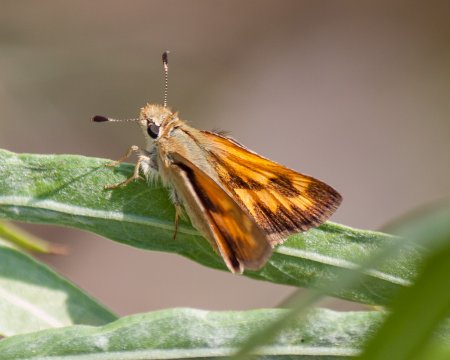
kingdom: Animalia
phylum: Arthropoda
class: Insecta
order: Lepidoptera
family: Hesperiidae
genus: Ochlodes
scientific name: Ochlodes sylvanoides
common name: Woodland Skipper
